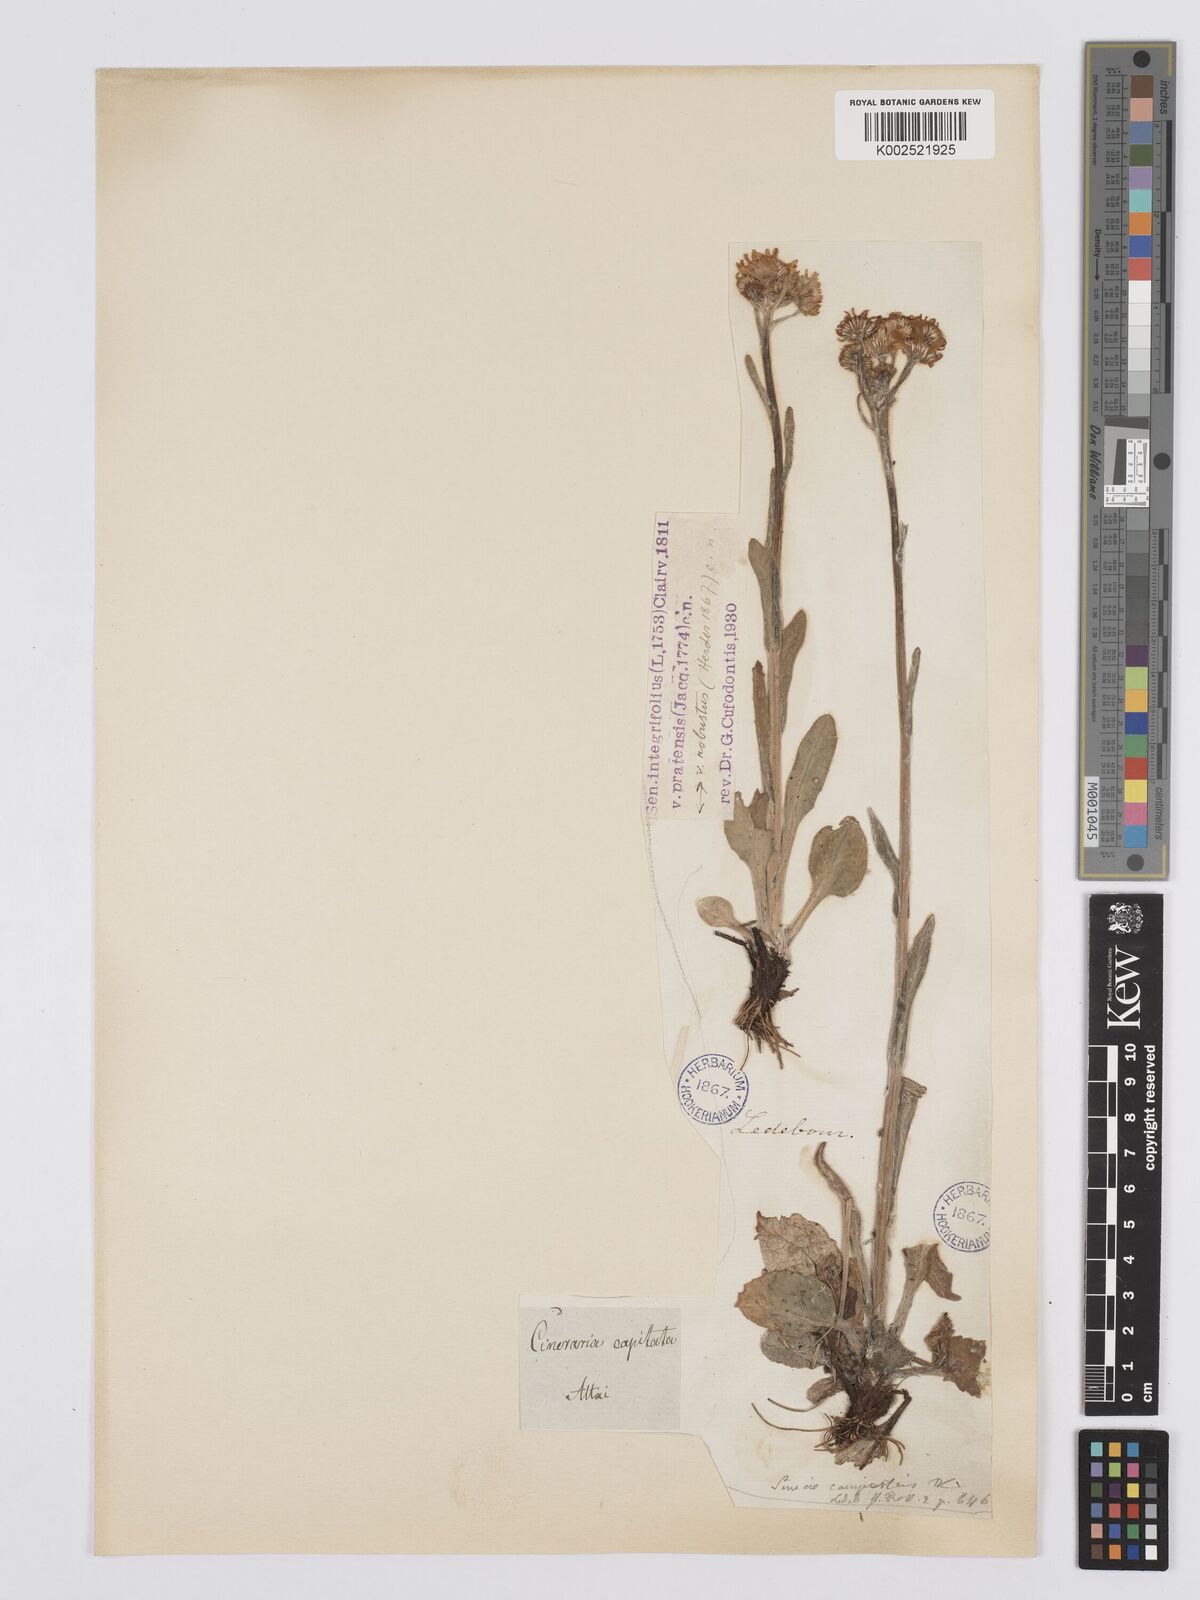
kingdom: Plantae
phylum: Tracheophyta
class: Magnoliopsida
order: Asterales
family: Asteraceae
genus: Tephroseris
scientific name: Tephroseris integrifolia
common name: Field fleawort
